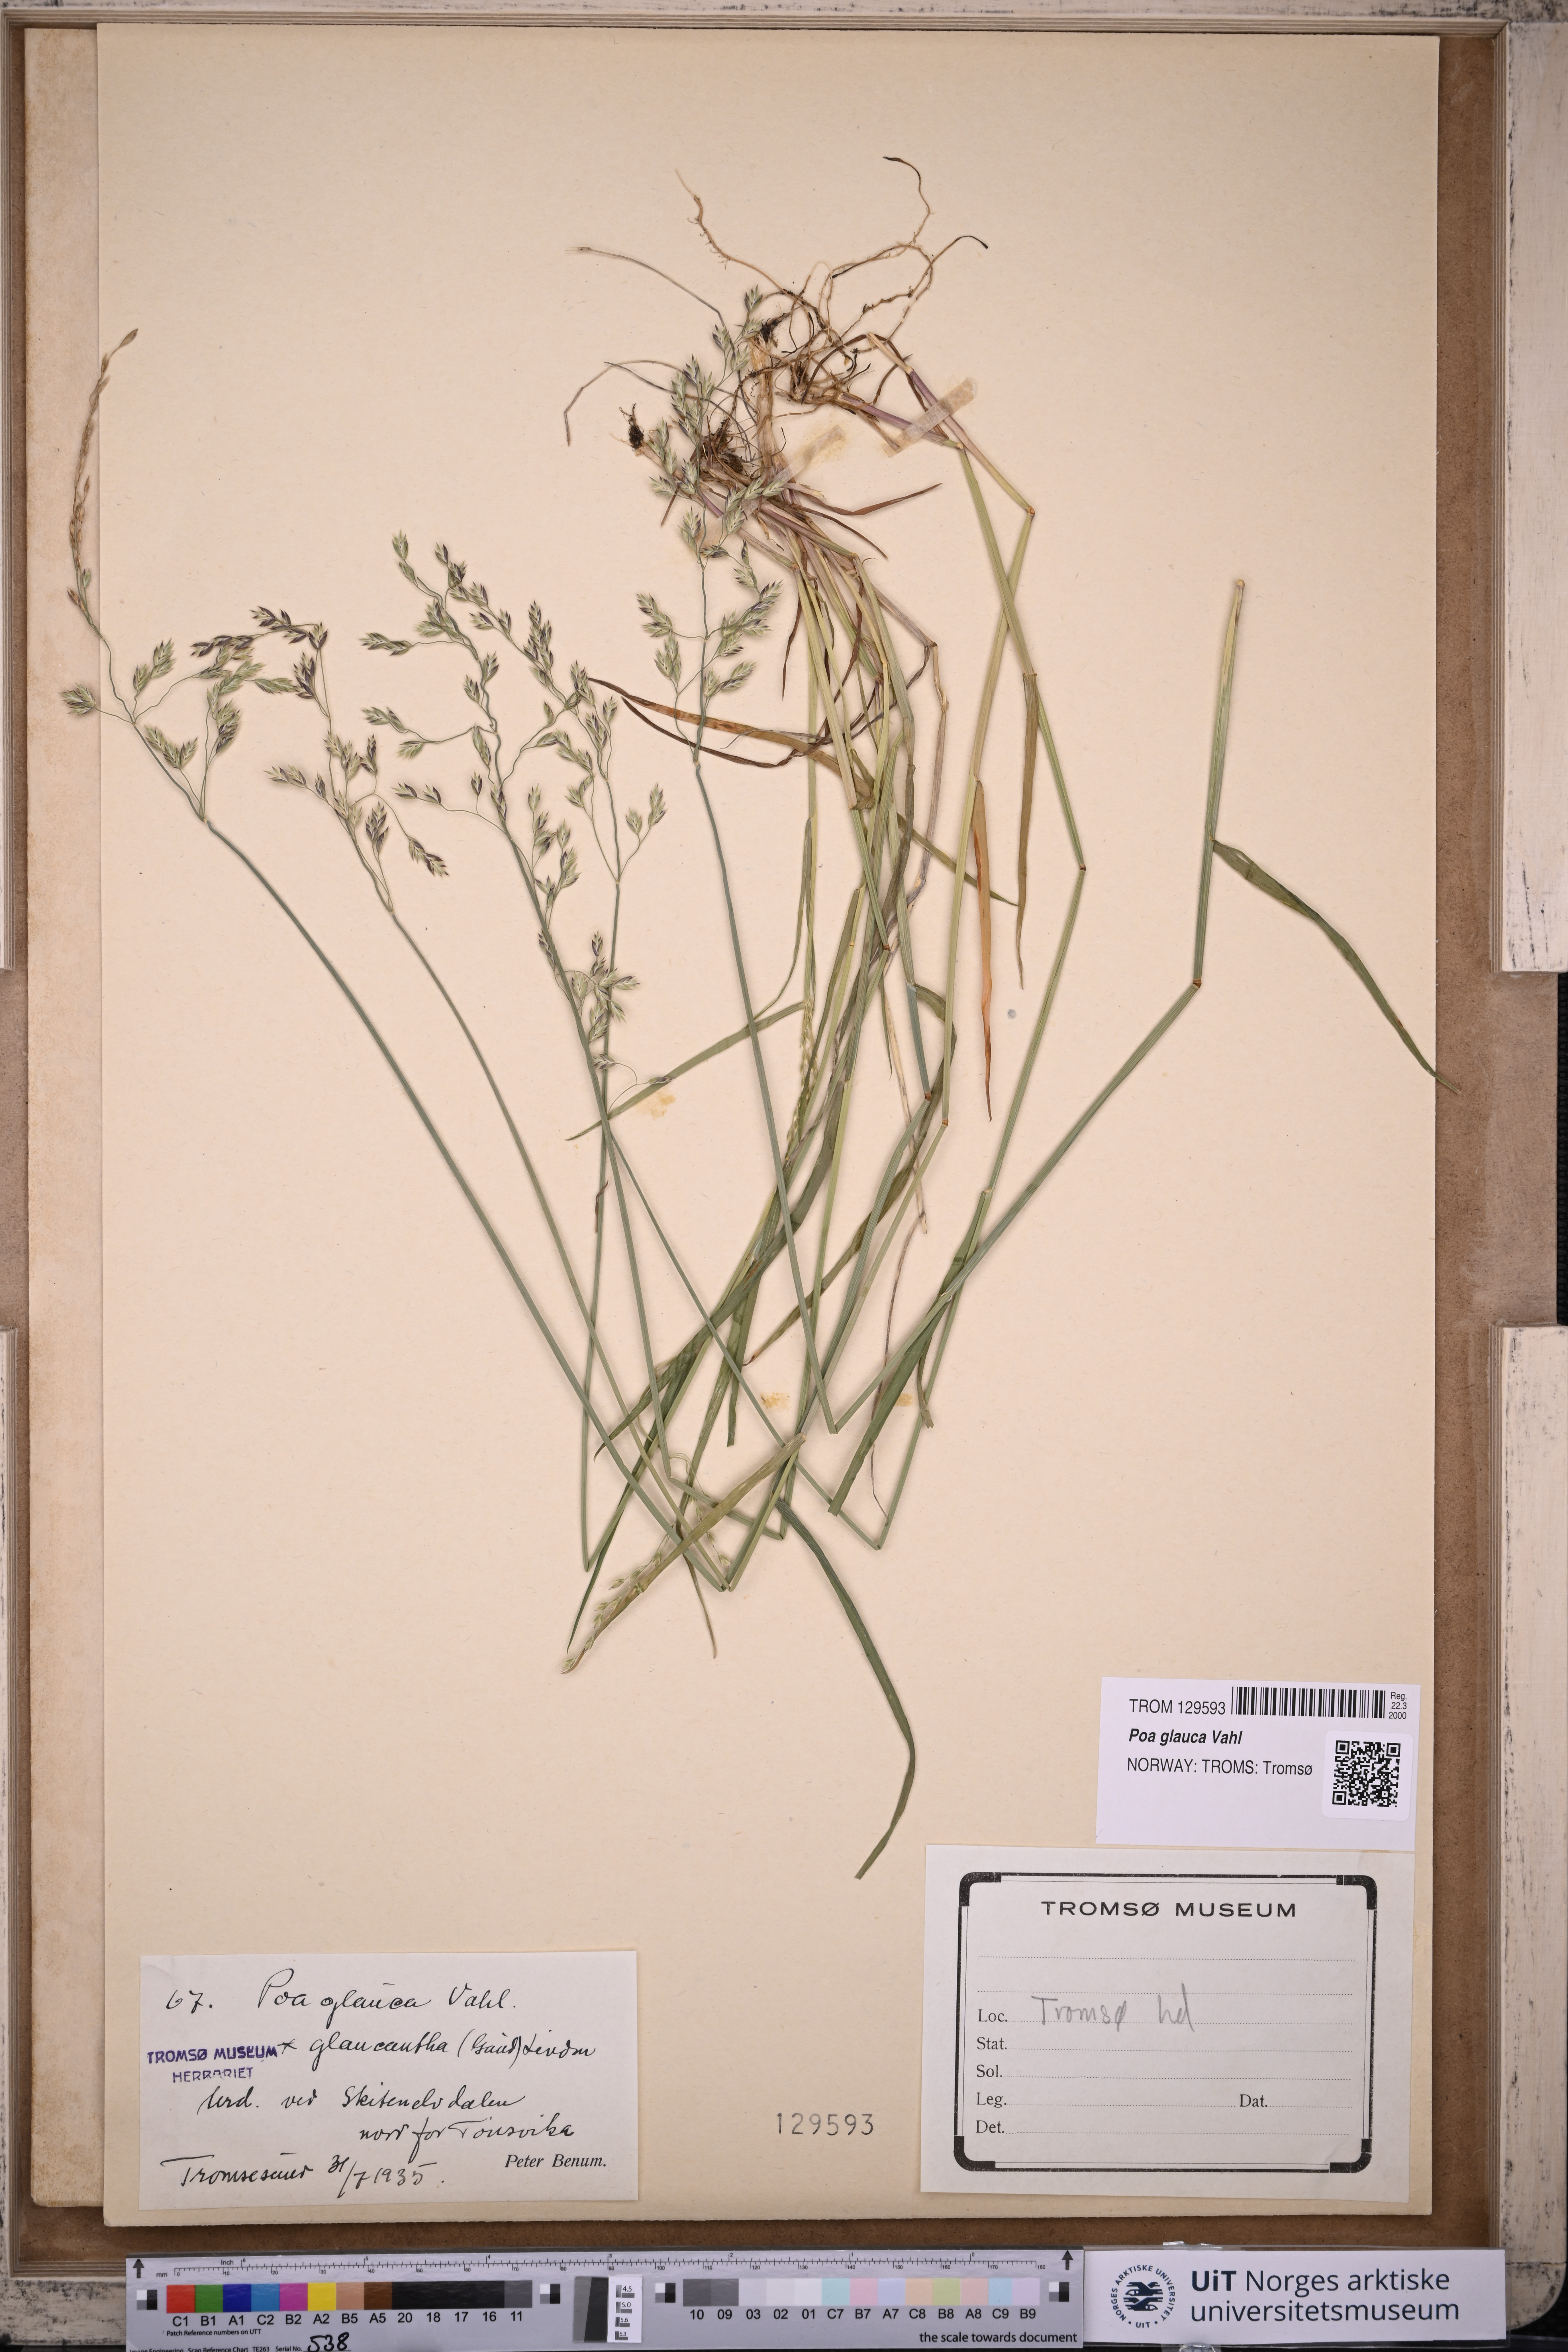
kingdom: Plantae
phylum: Tracheophyta
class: Liliopsida
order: Poales
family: Poaceae
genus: Poa
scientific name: Poa glauca
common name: Glaucous bluegrass
